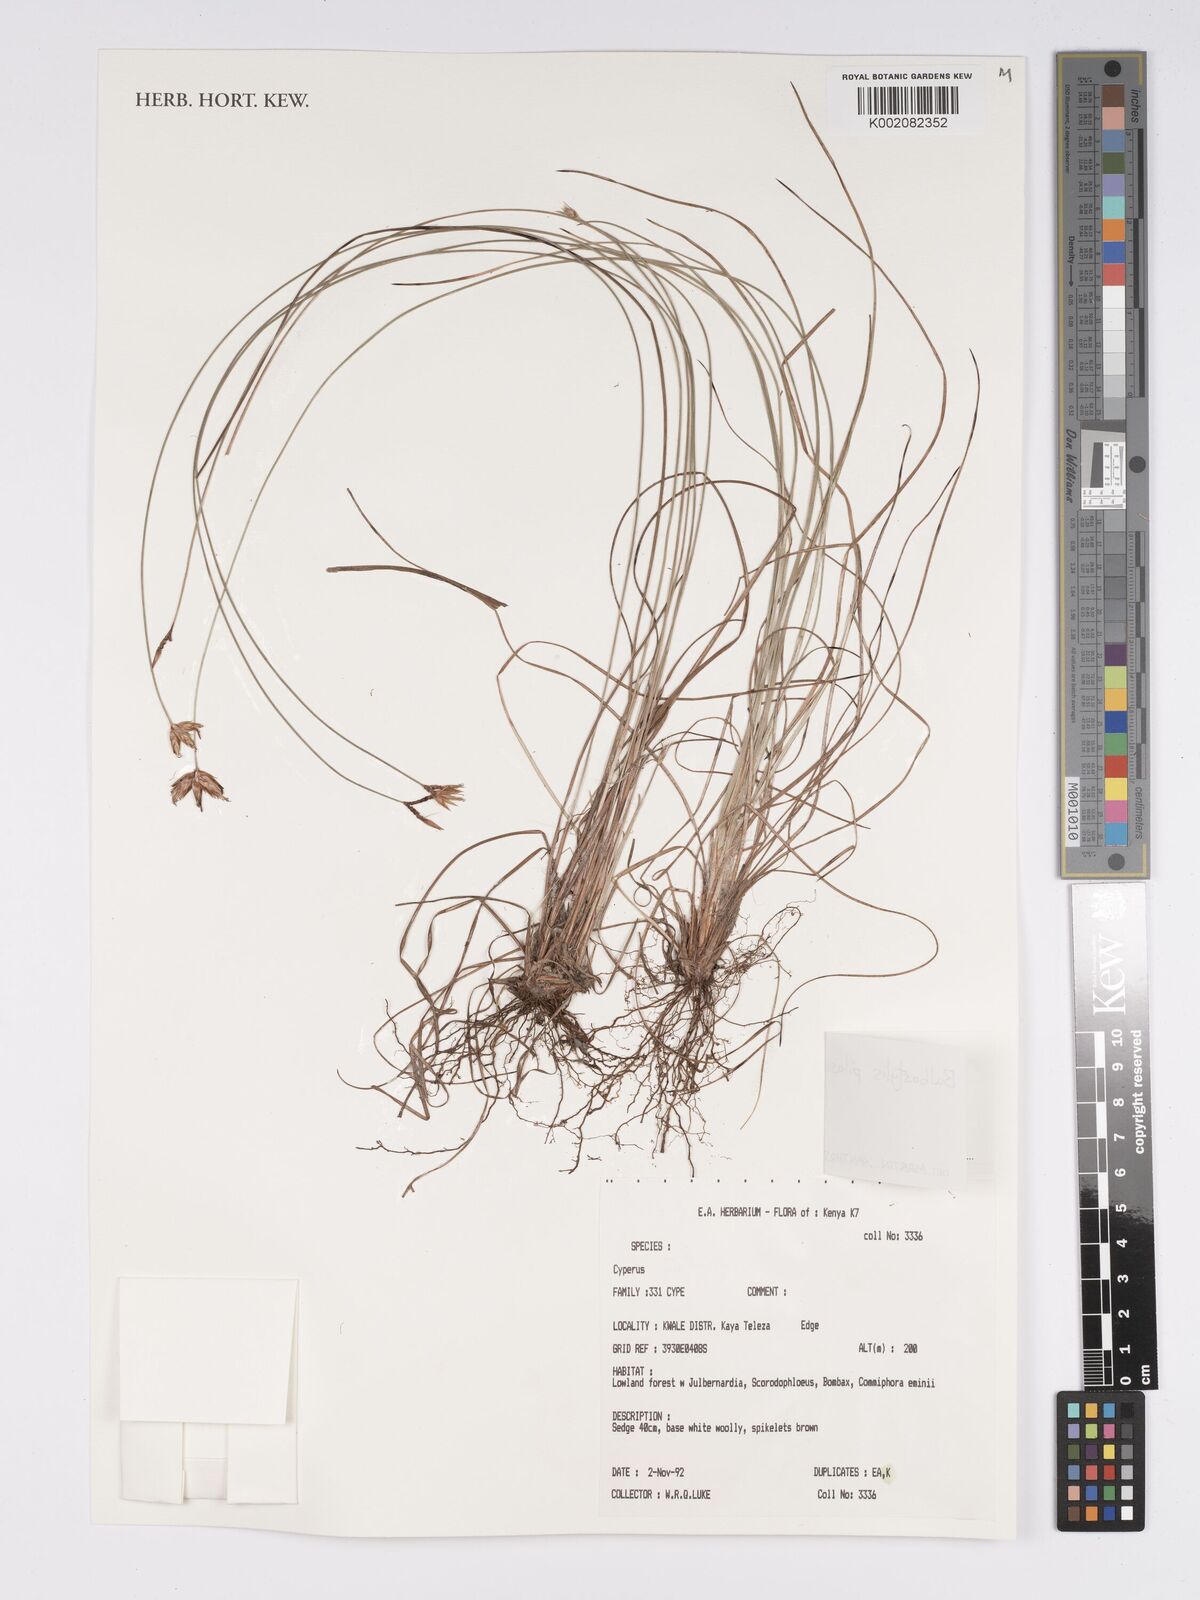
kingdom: Plantae
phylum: Tracheophyta
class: Liliopsida
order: Poales
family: Cyperaceae
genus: Bulbostylis
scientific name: Bulbostylis pilosa
